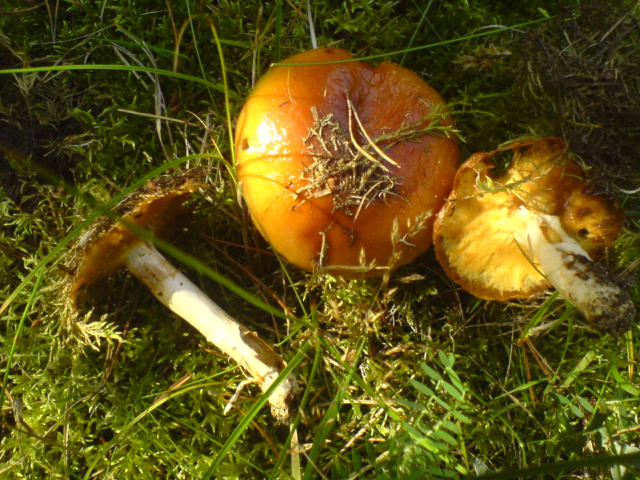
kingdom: Fungi
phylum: Basidiomycota
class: Agaricomycetes
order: Agaricales
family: Cortinariaceae
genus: Cortinarius
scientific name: Cortinarius mucosus
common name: kastaniebrun slørhat
